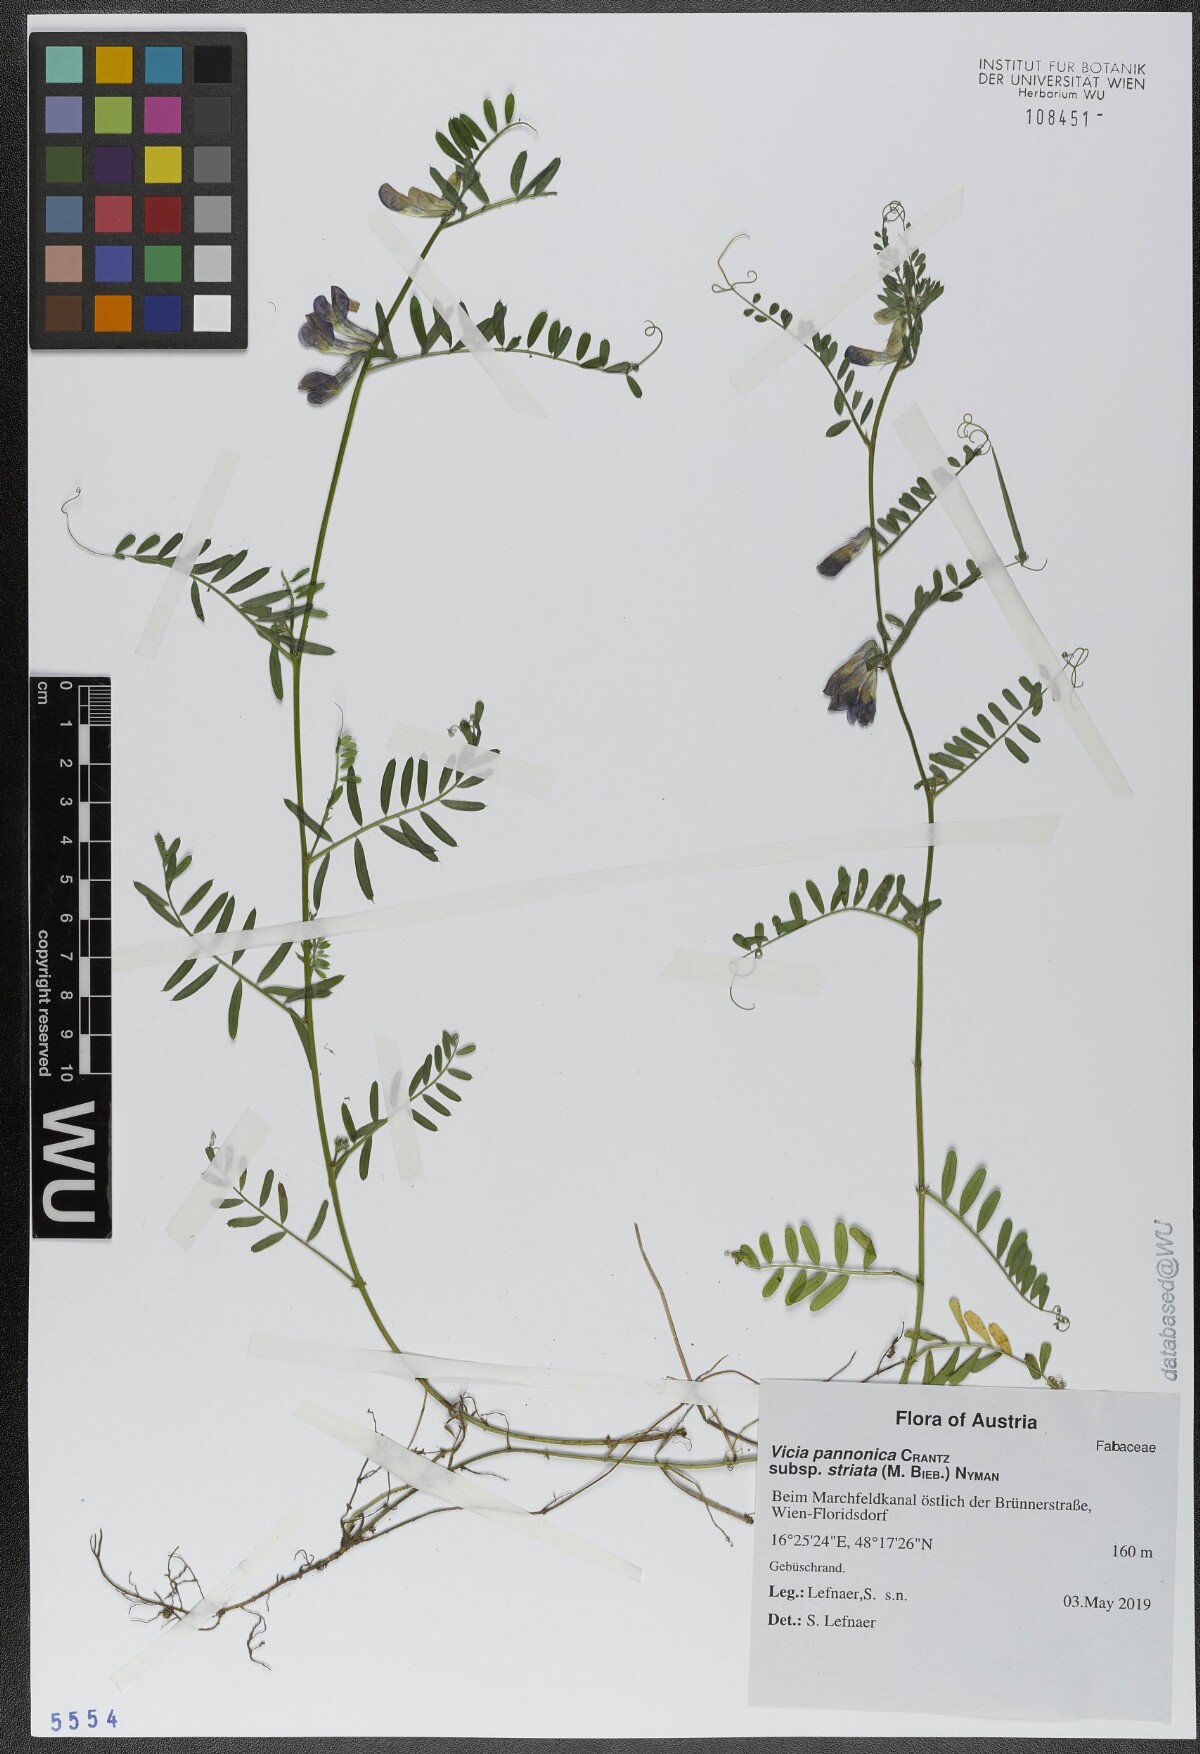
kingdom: Plantae
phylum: Tracheophyta
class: Magnoliopsida
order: Fabales
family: Fabaceae
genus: Vicia
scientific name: Vicia pannonica
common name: Hungarian vetch
